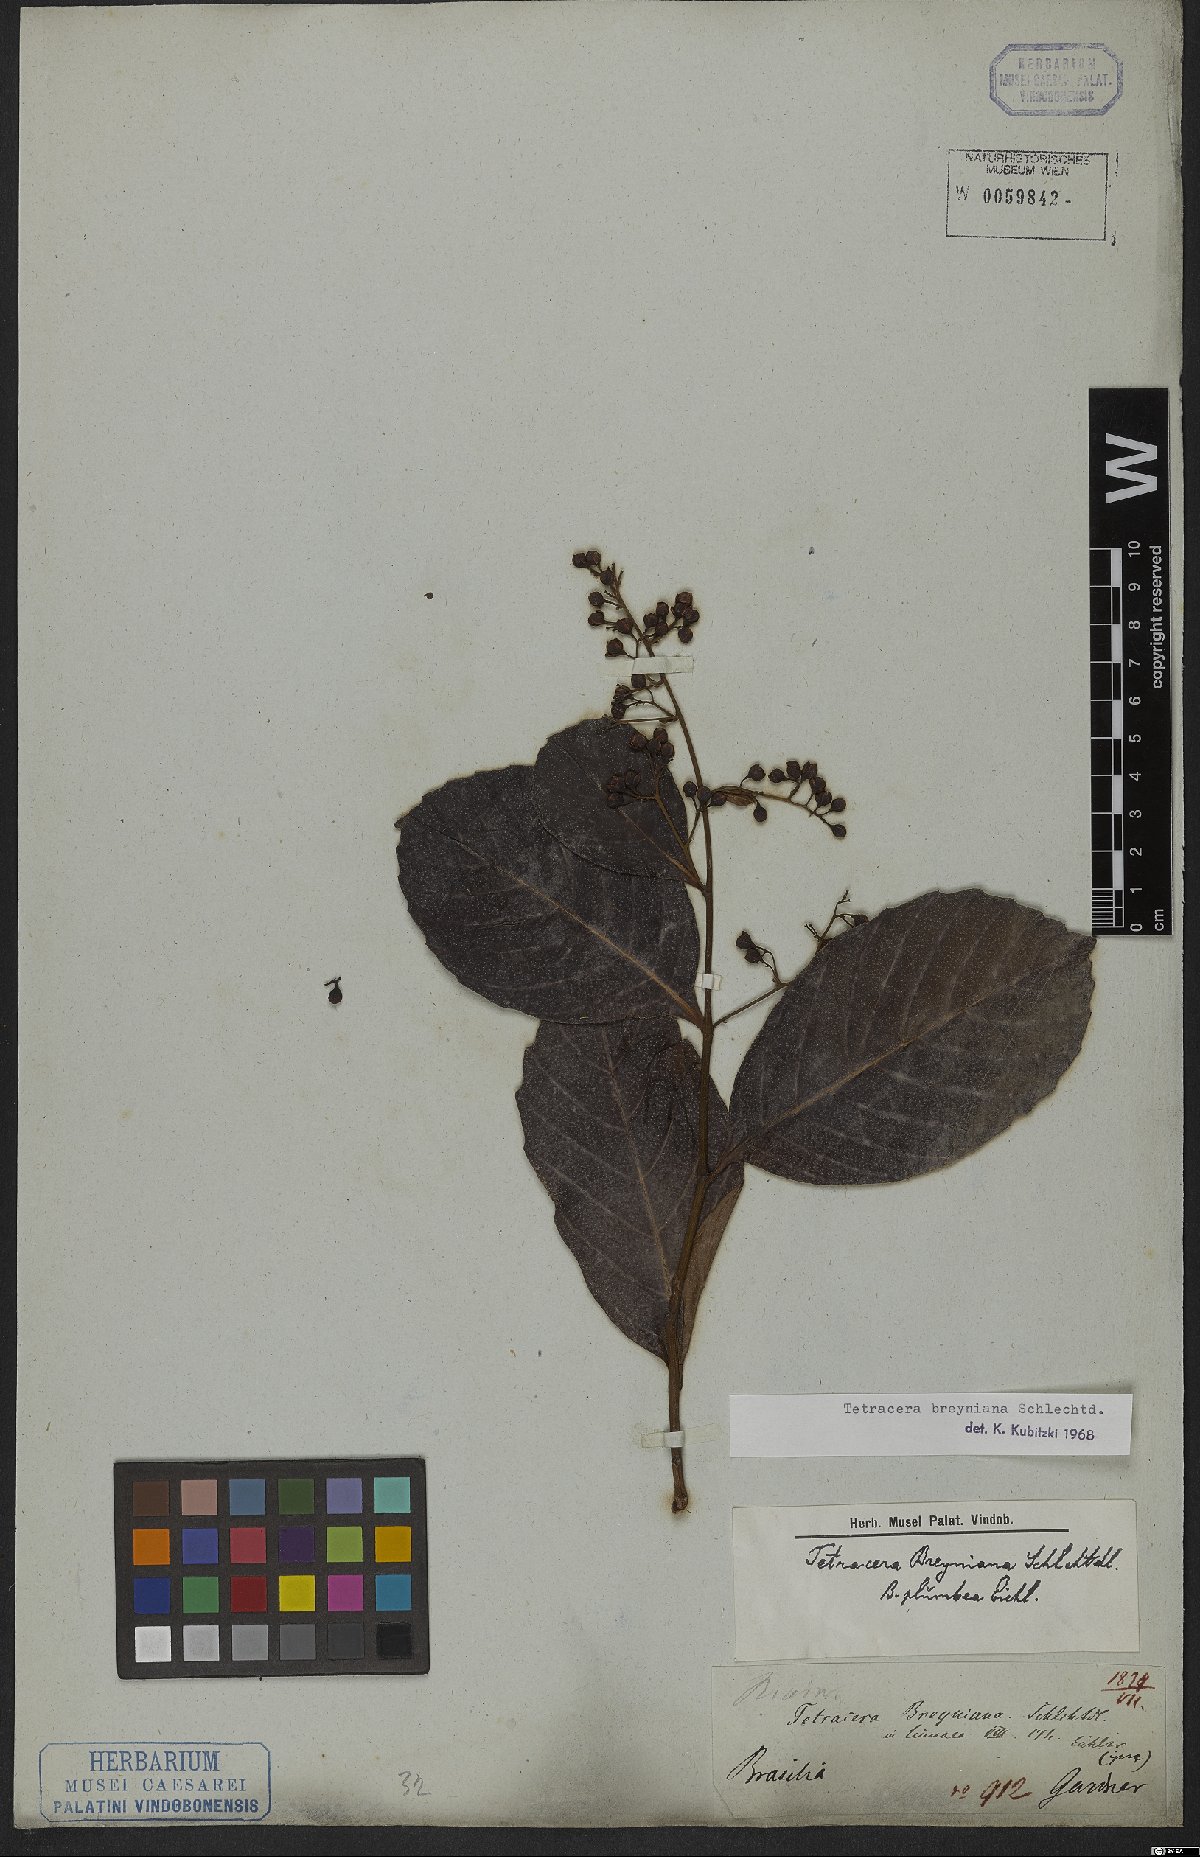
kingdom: Plantae
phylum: Tracheophyta
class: Magnoliopsida
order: Dilleniales
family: Dilleniaceae
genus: Tetracera
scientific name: Tetracera breyniana
